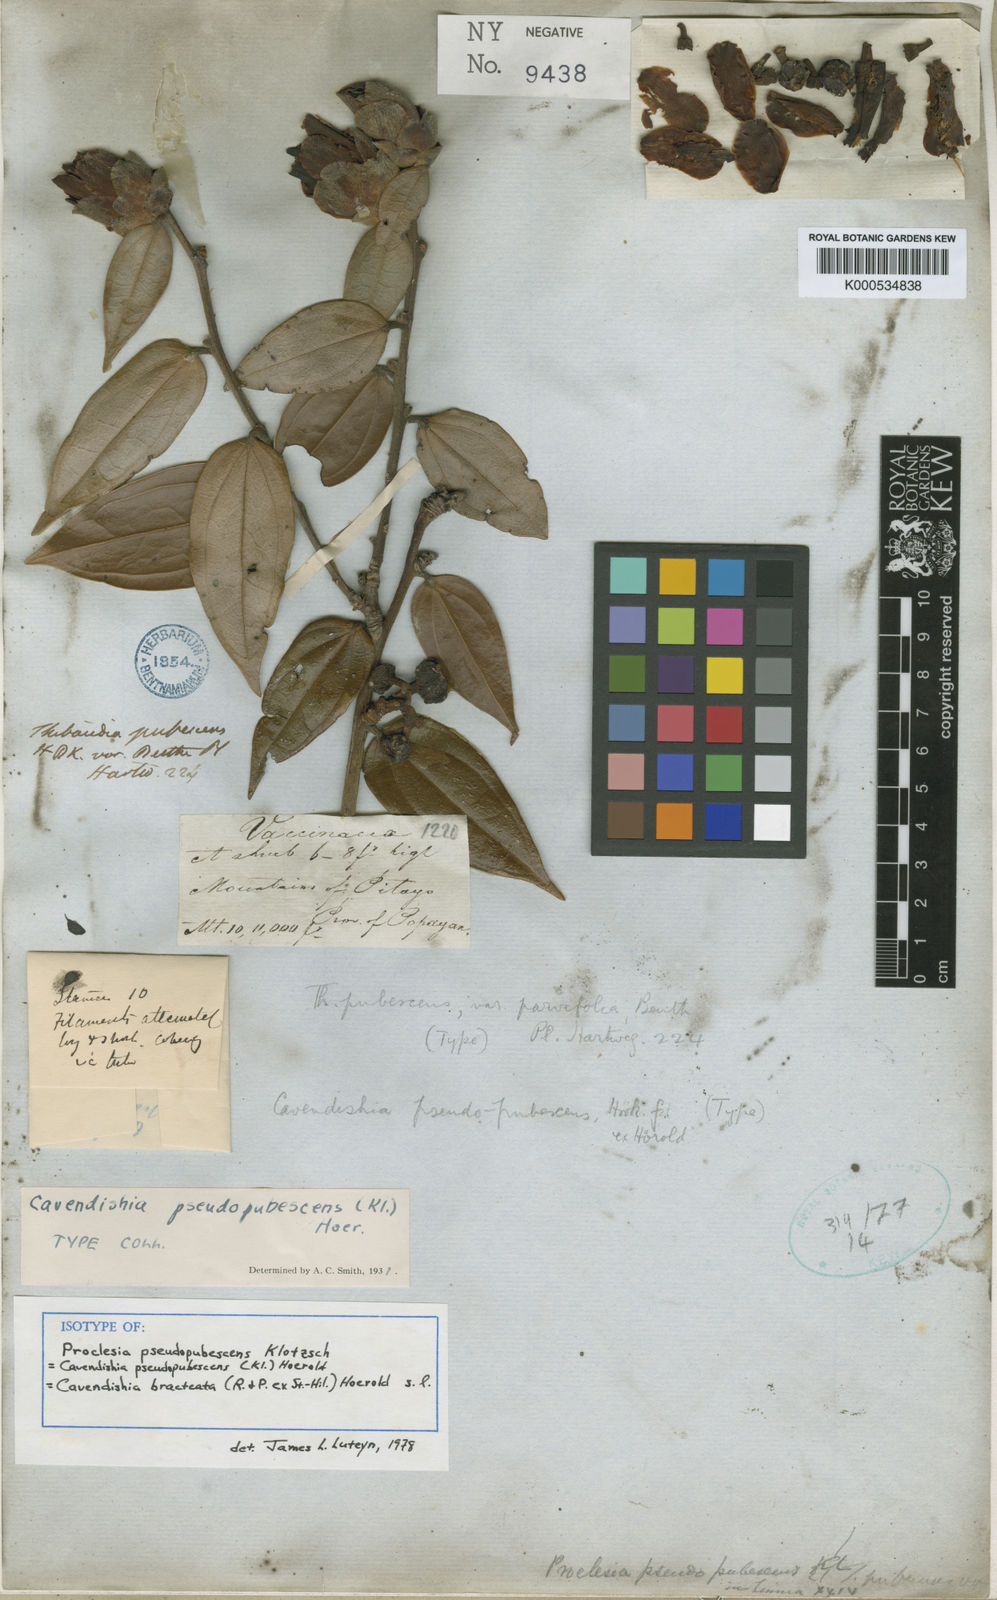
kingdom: Plantae
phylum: Tracheophyta
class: Magnoliopsida
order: Ericales
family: Ericaceae
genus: Cavendishia
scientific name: Cavendishia bracteata
